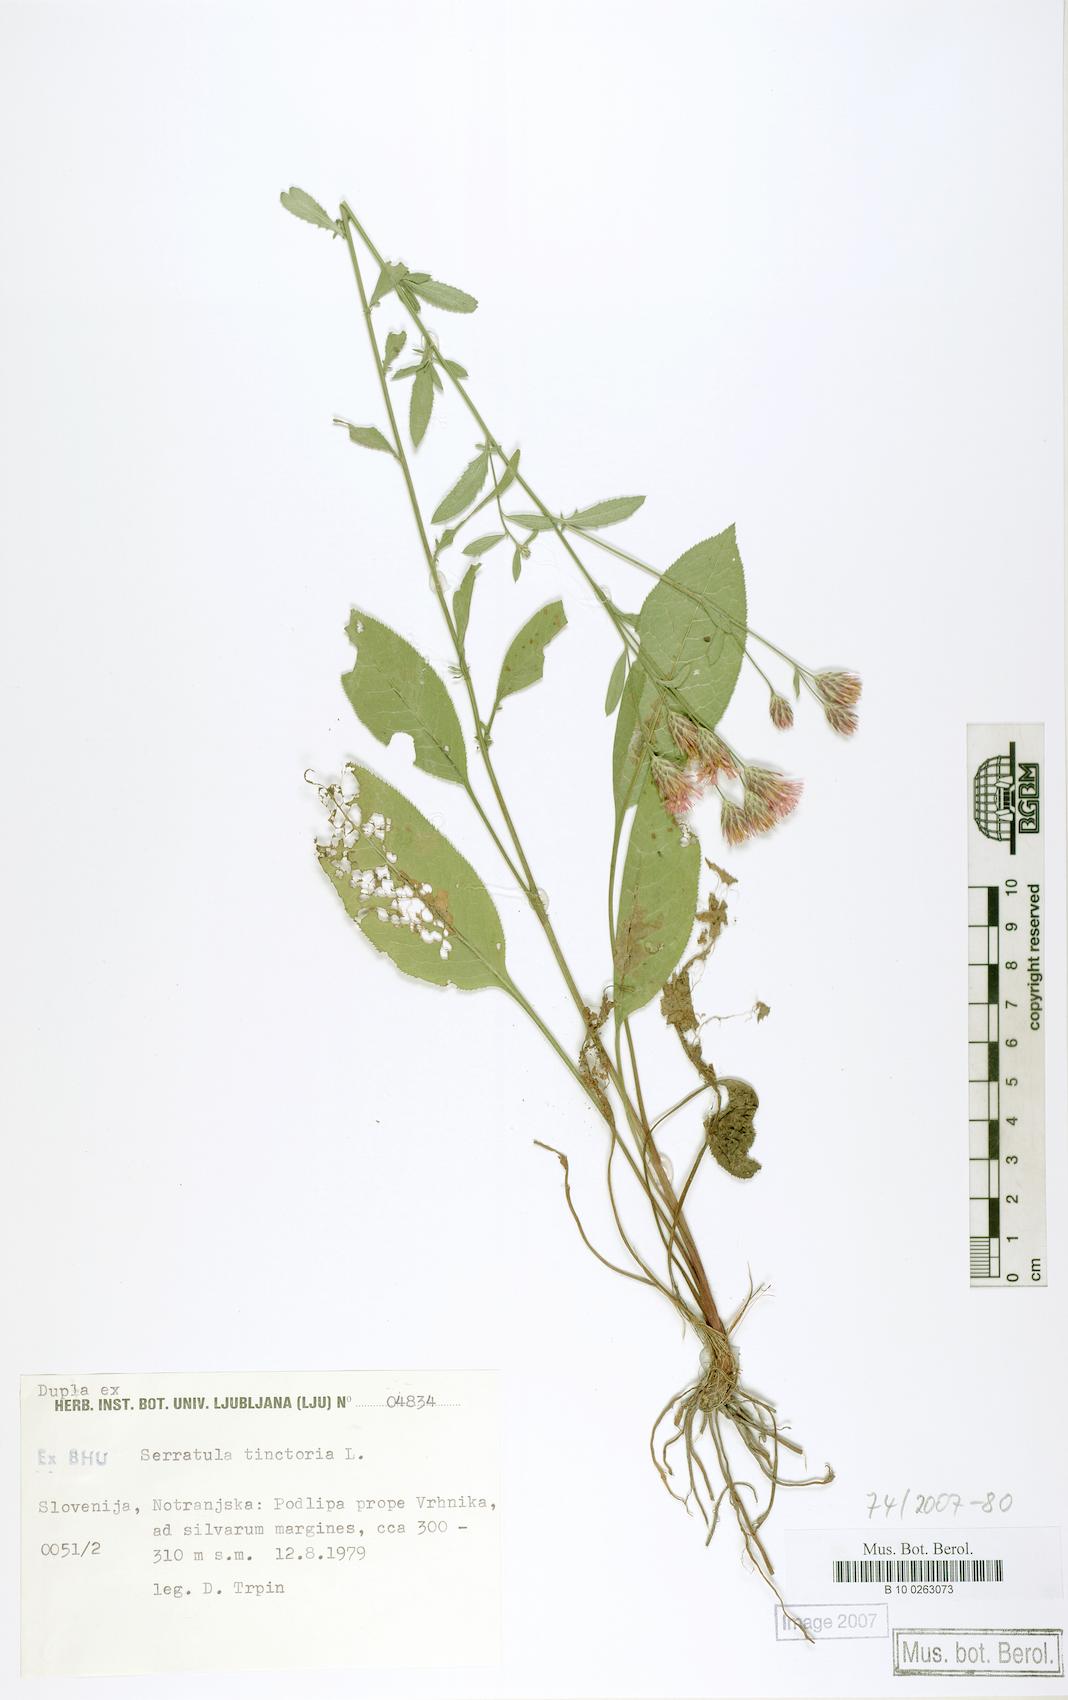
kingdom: Plantae
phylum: Tracheophyta
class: Magnoliopsida
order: Asterales
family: Asteraceae
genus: Serratula
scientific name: Serratula tinctoria
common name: Saw-wort
